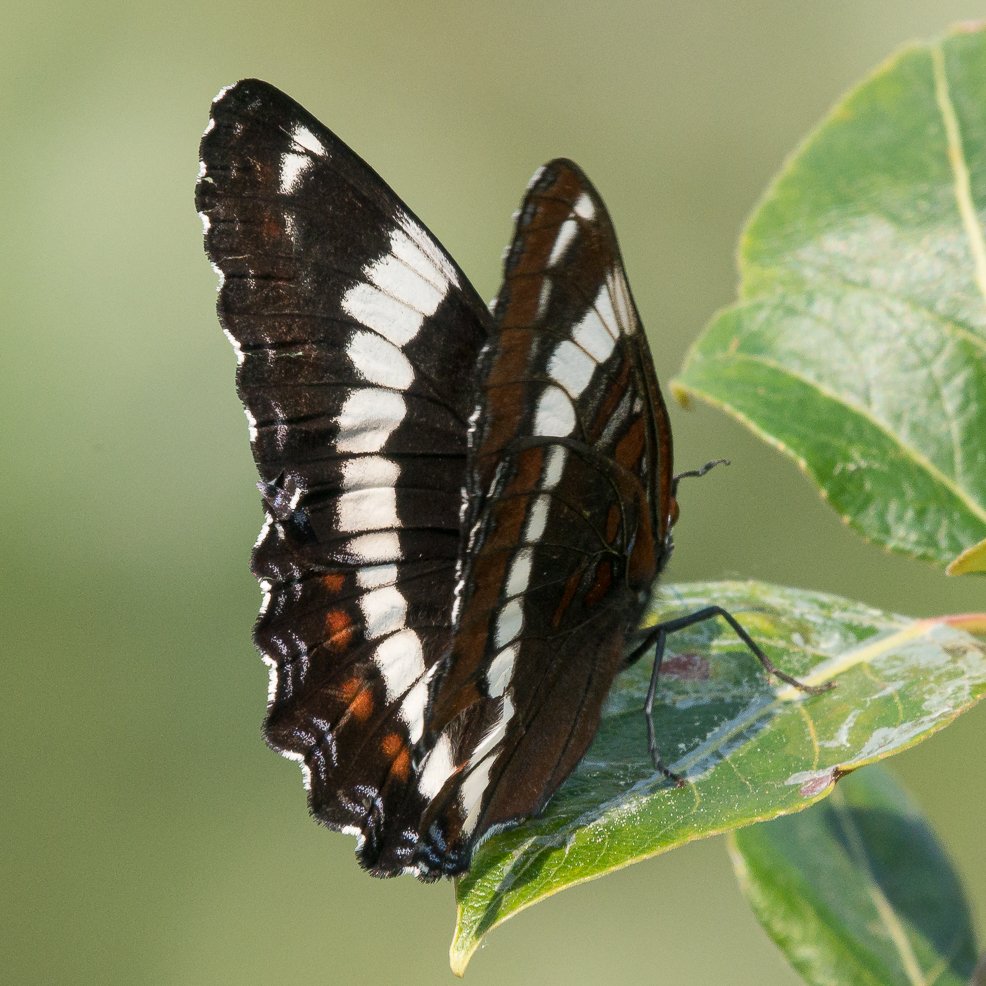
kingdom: Animalia
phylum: Arthropoda
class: Insecta
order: Lepidoptera
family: Nymphalidae
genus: Limenitis
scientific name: Limenitis arthemis
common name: Red-spotted Admiral
